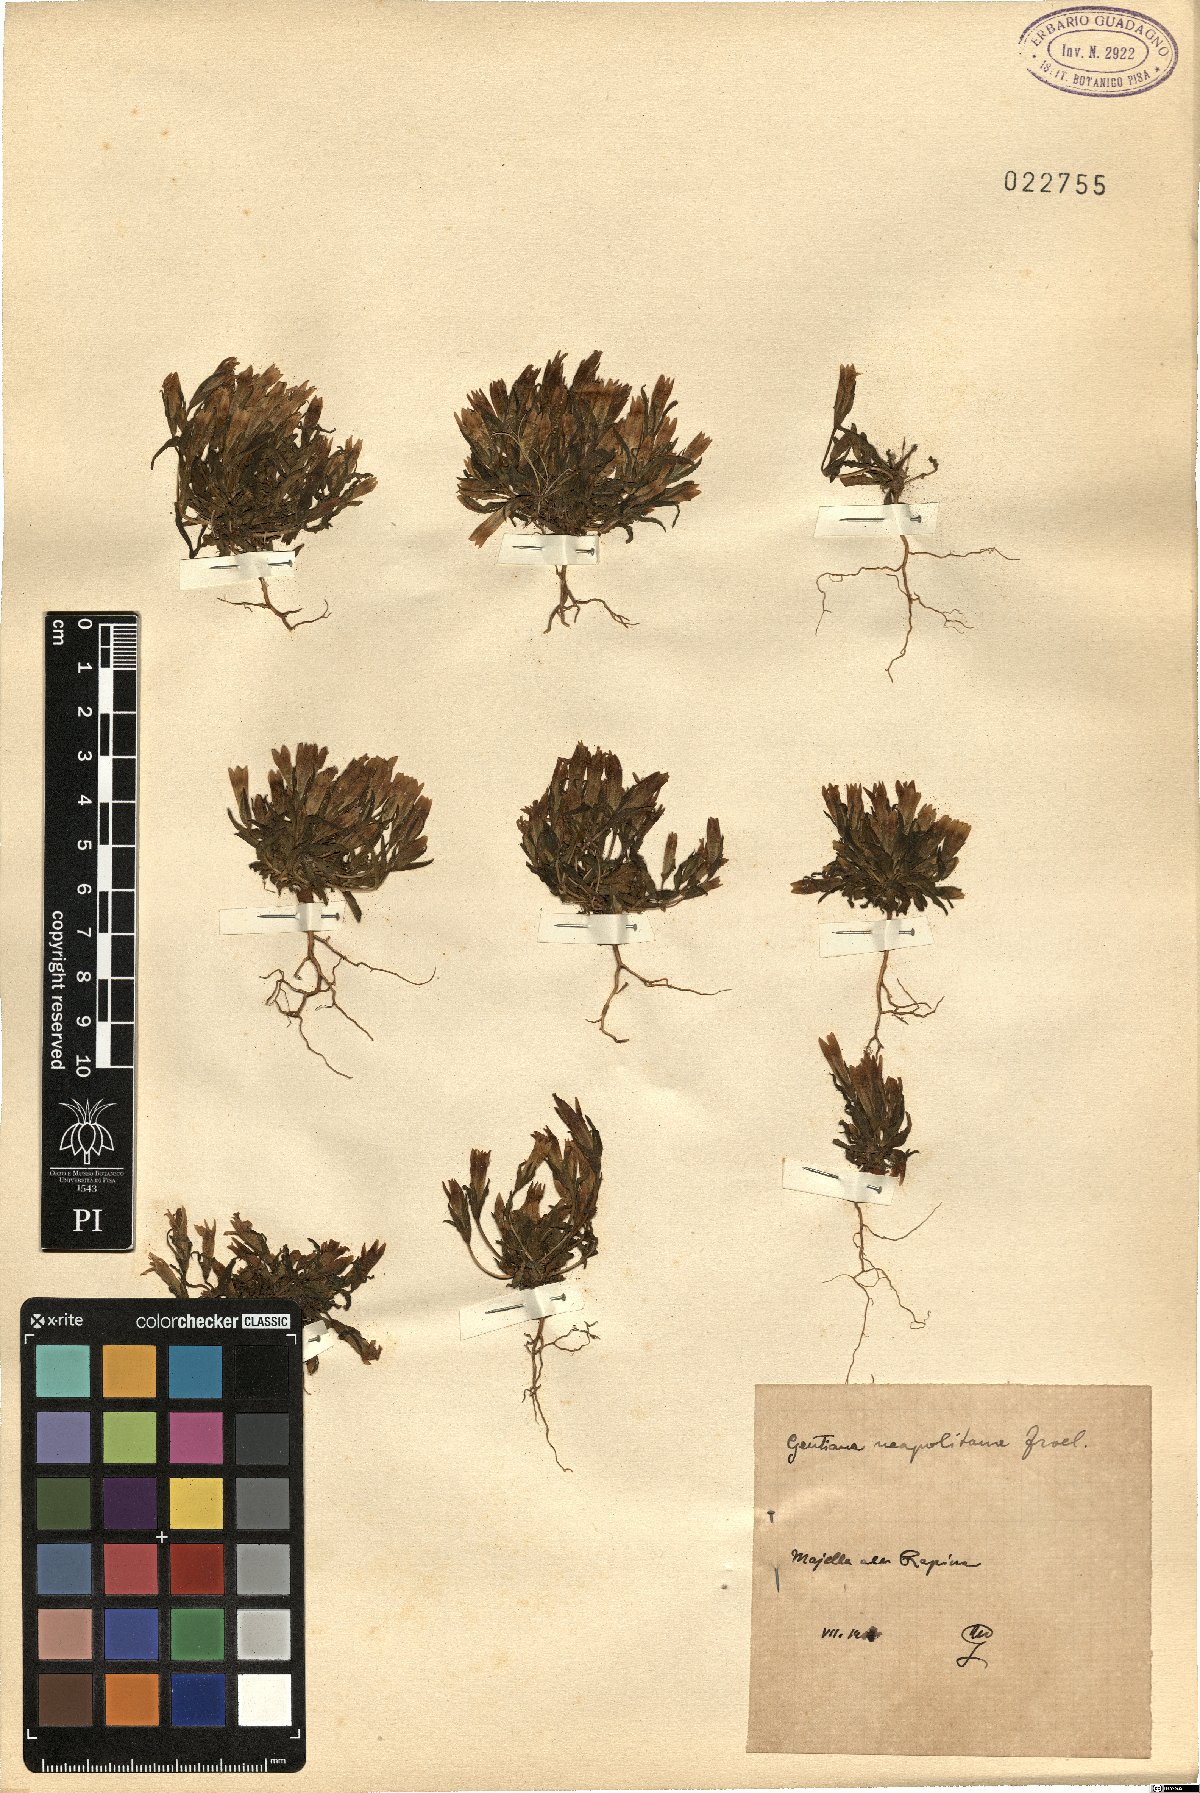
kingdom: Plantae
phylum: Tracheophyta
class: Magnoliopsida
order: Gentianales
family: Gentianaceae
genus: Gentianella
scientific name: Gentianella columnae
